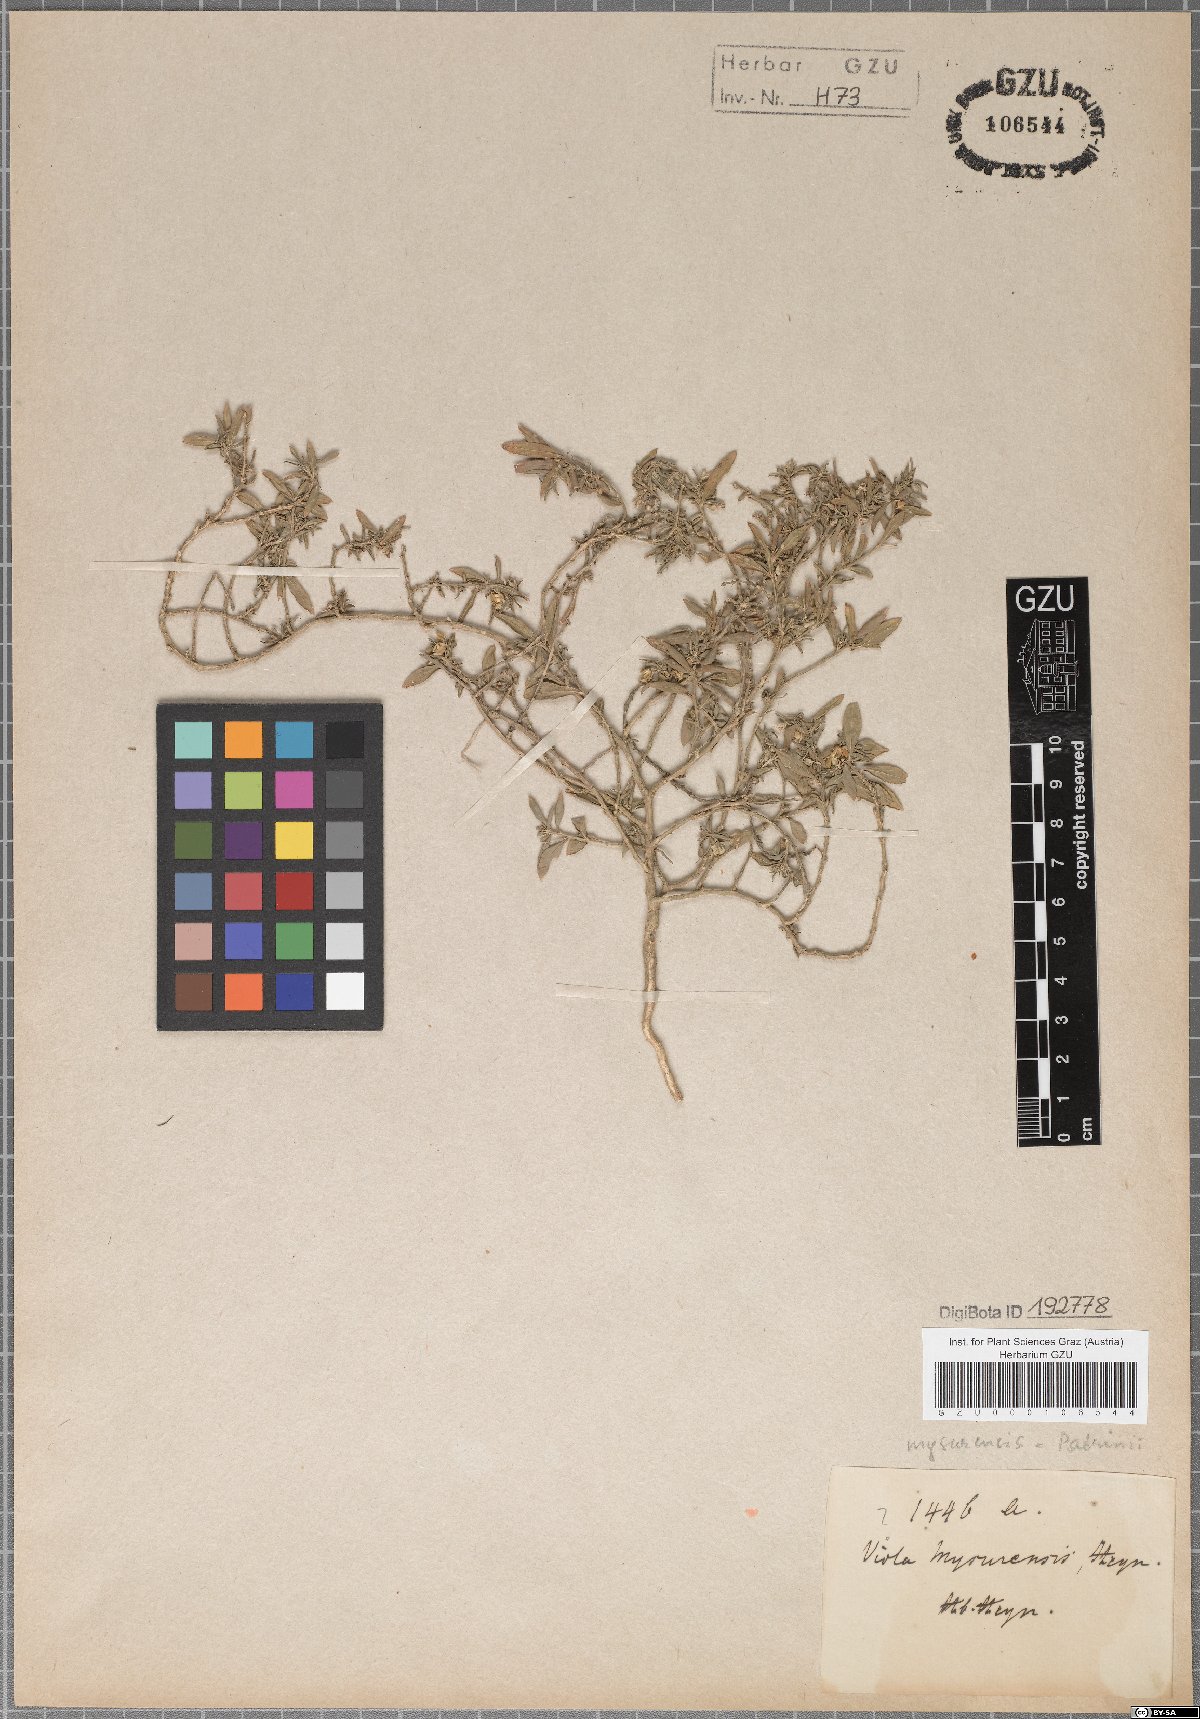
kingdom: Plantae
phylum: Tracheophyta
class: Magnoliopsida
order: Malpighiales
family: Violaceae
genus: Viola
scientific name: Viola patrinii
